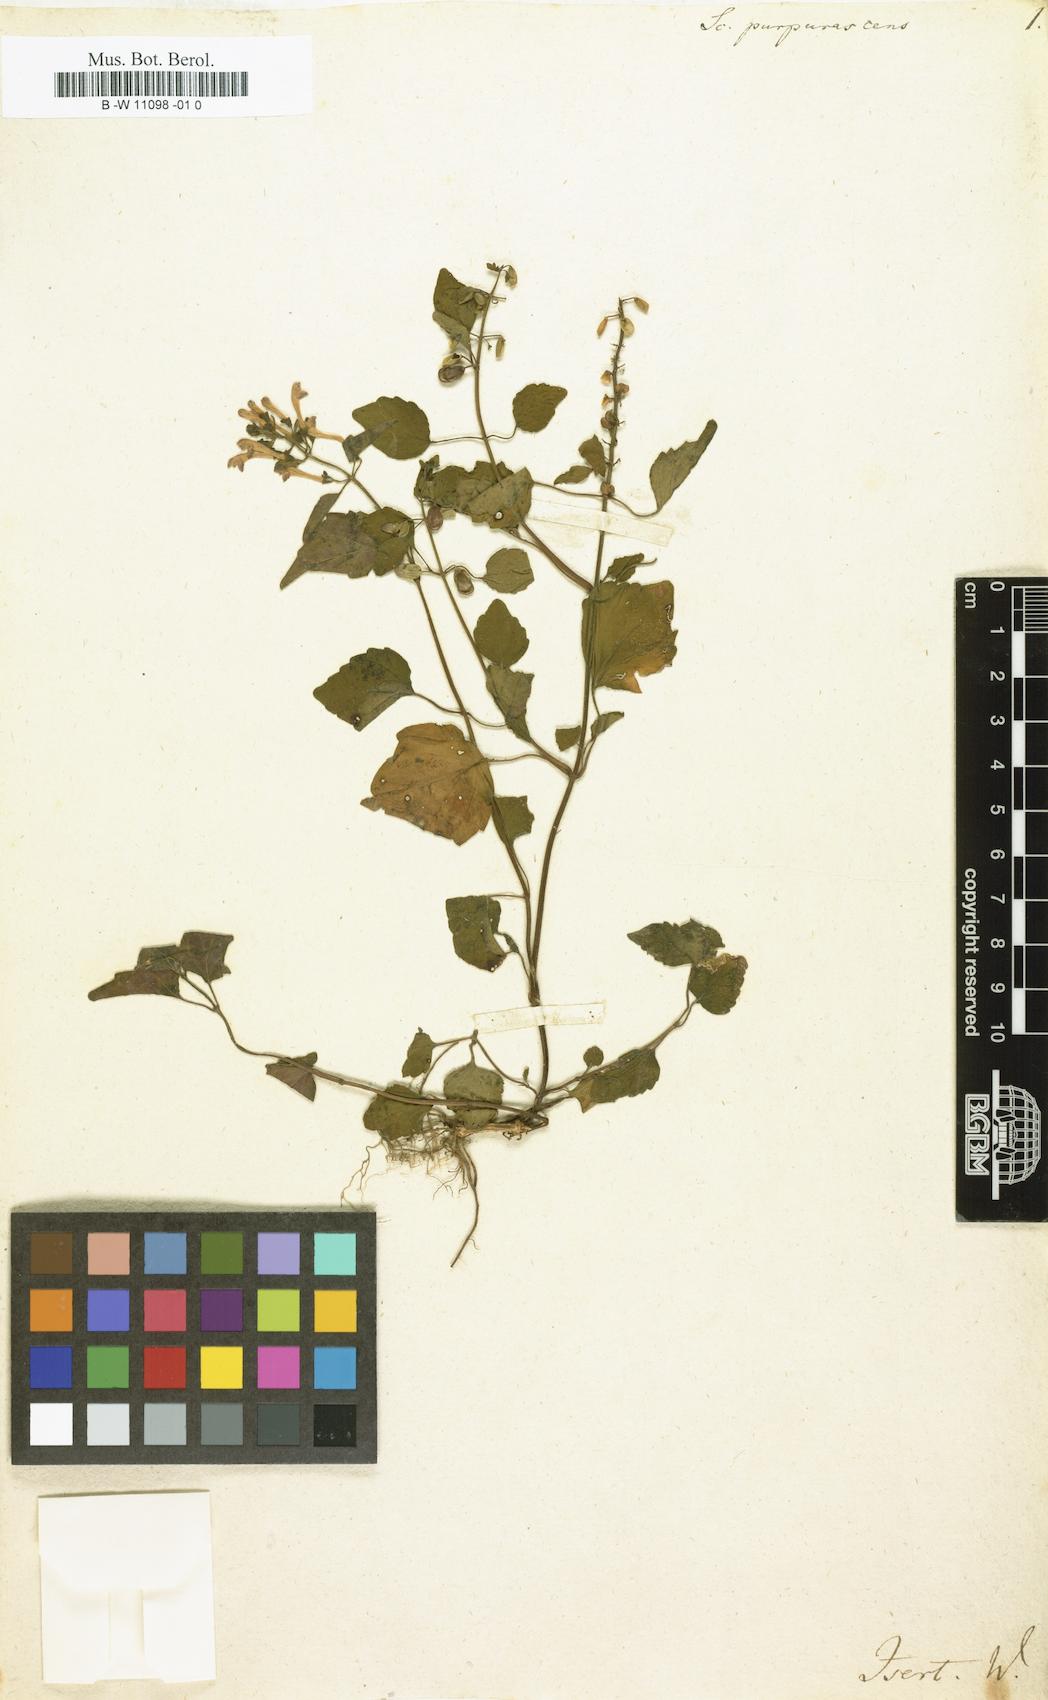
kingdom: Plantae
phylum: Tracheophyta
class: Magnoliopsida
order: Lamiales
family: Lamiaceae
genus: Scutellaria
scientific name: Scutellaria purpurascens
